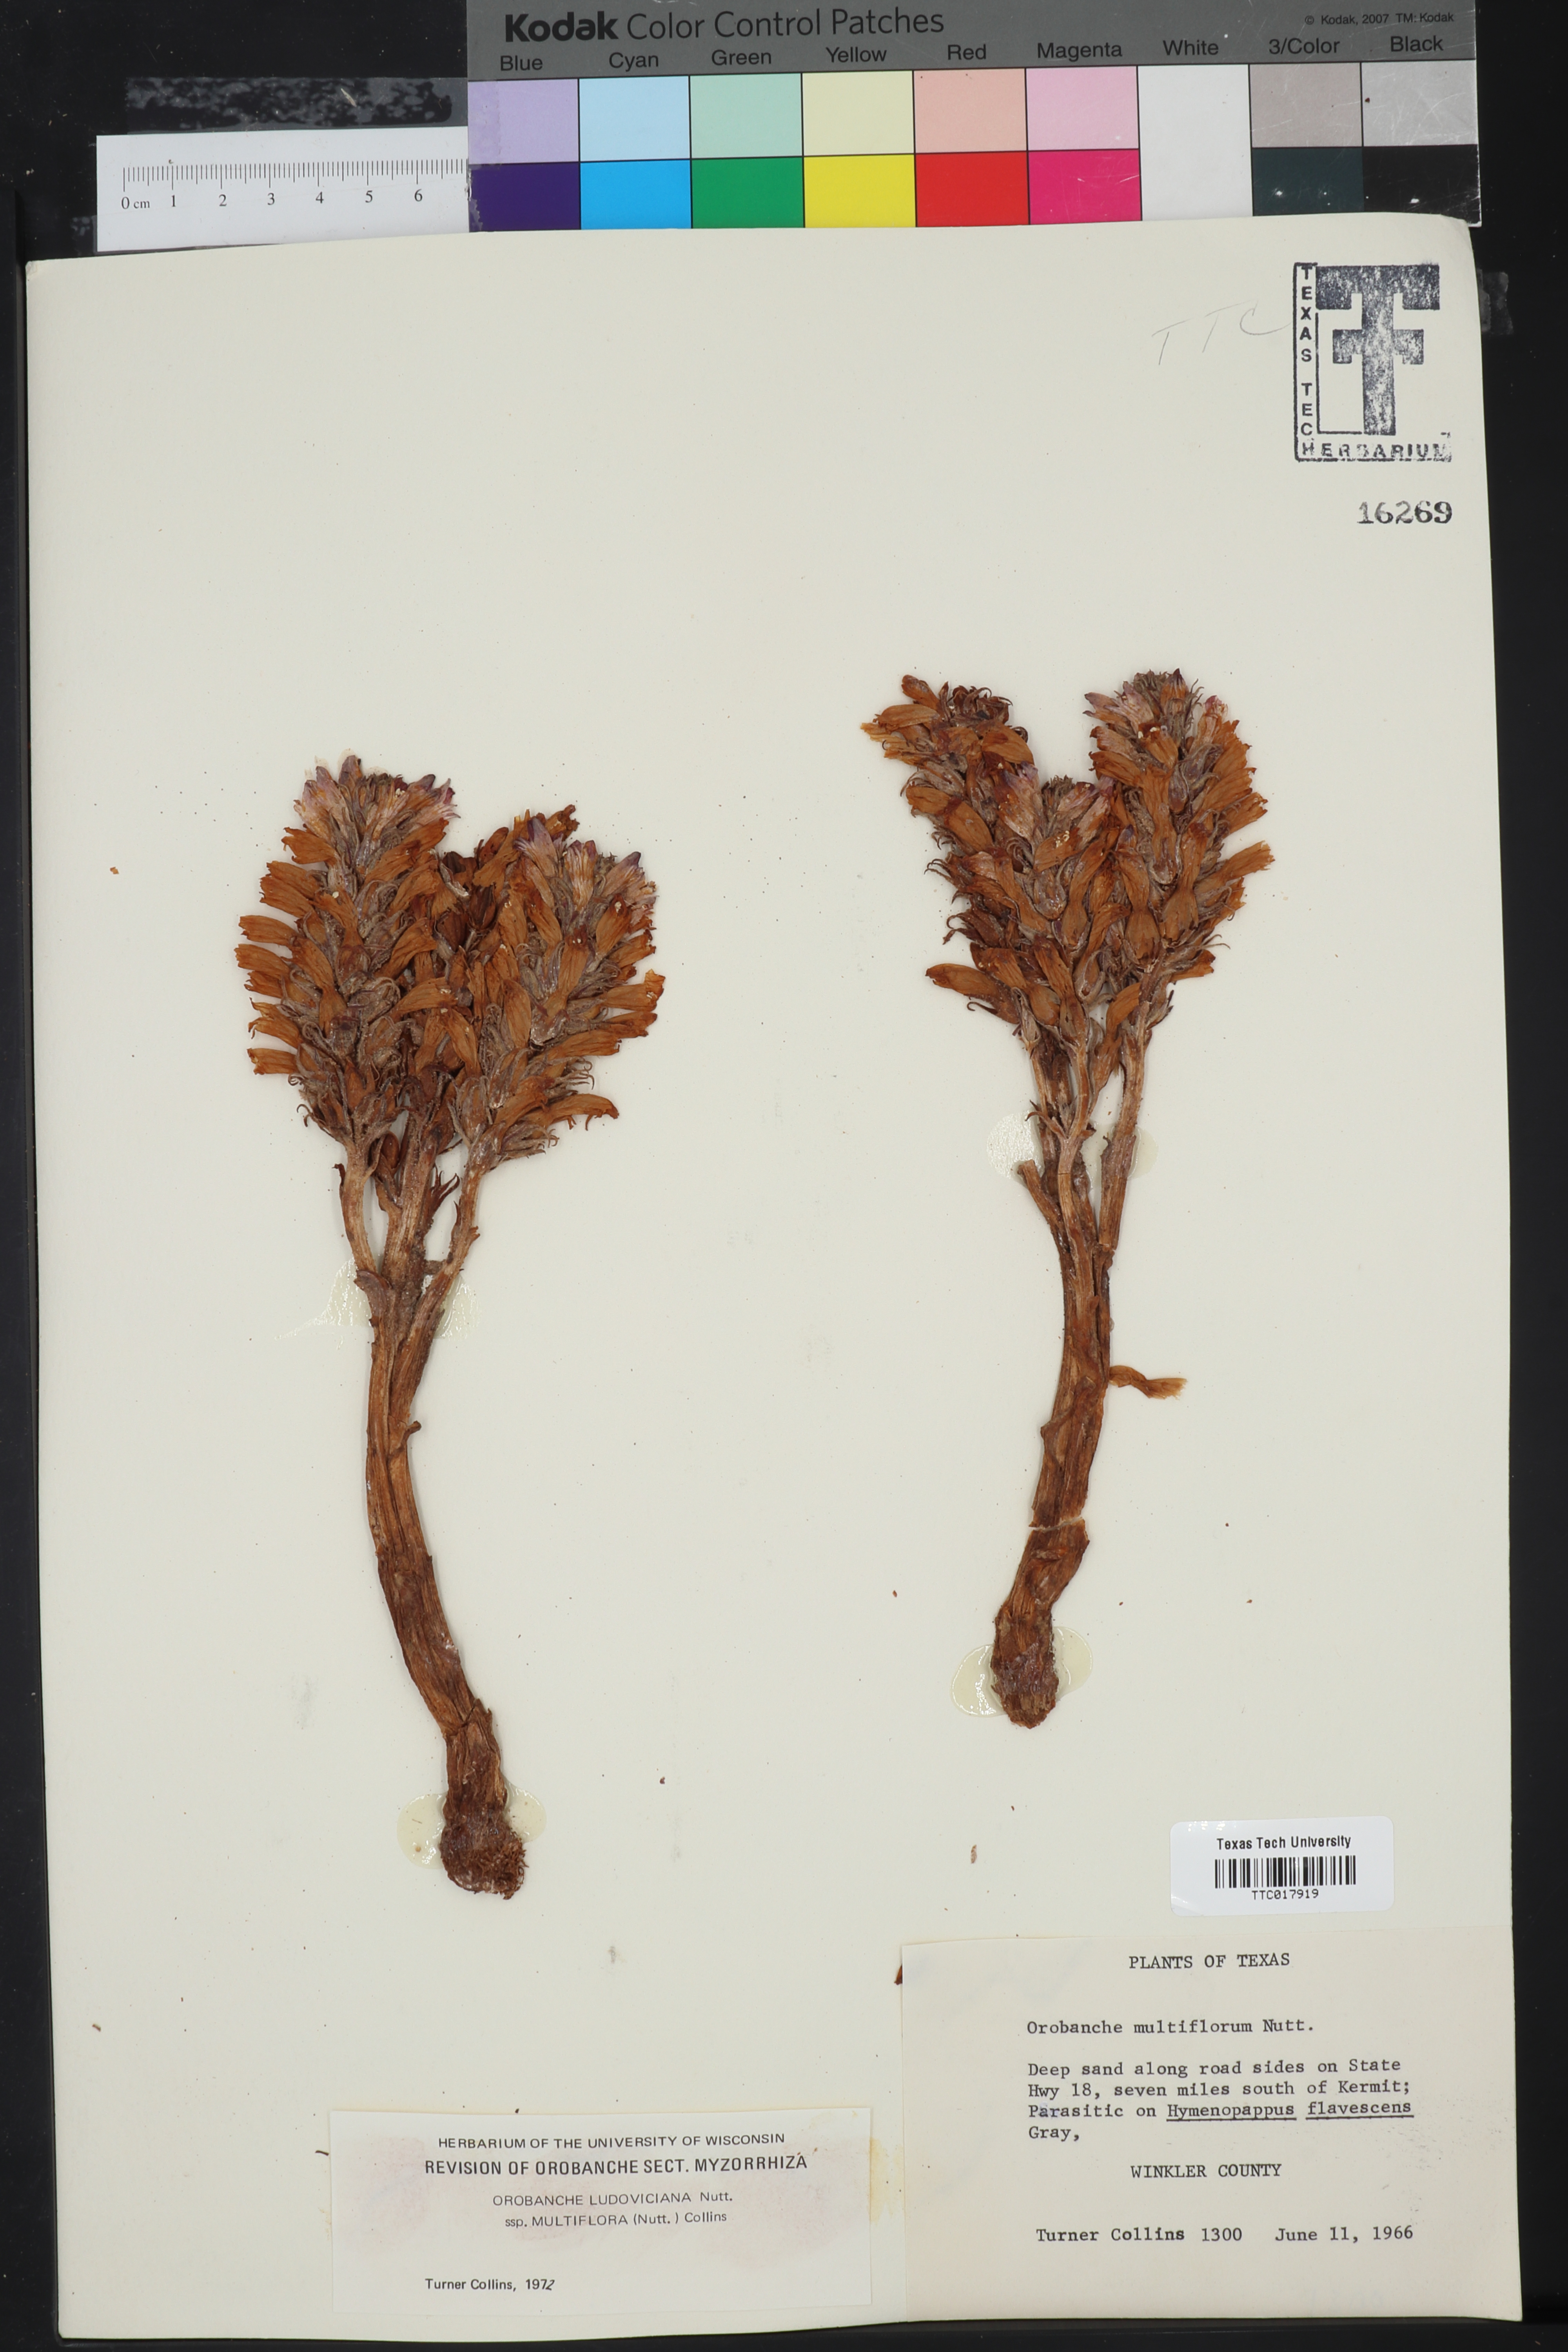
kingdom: Plantae
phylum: Tracheophyta
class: Magnoliopsida
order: Lamiales
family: Orobanchaceae
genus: Aphyllon
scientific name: Aphyllon multiflorum
